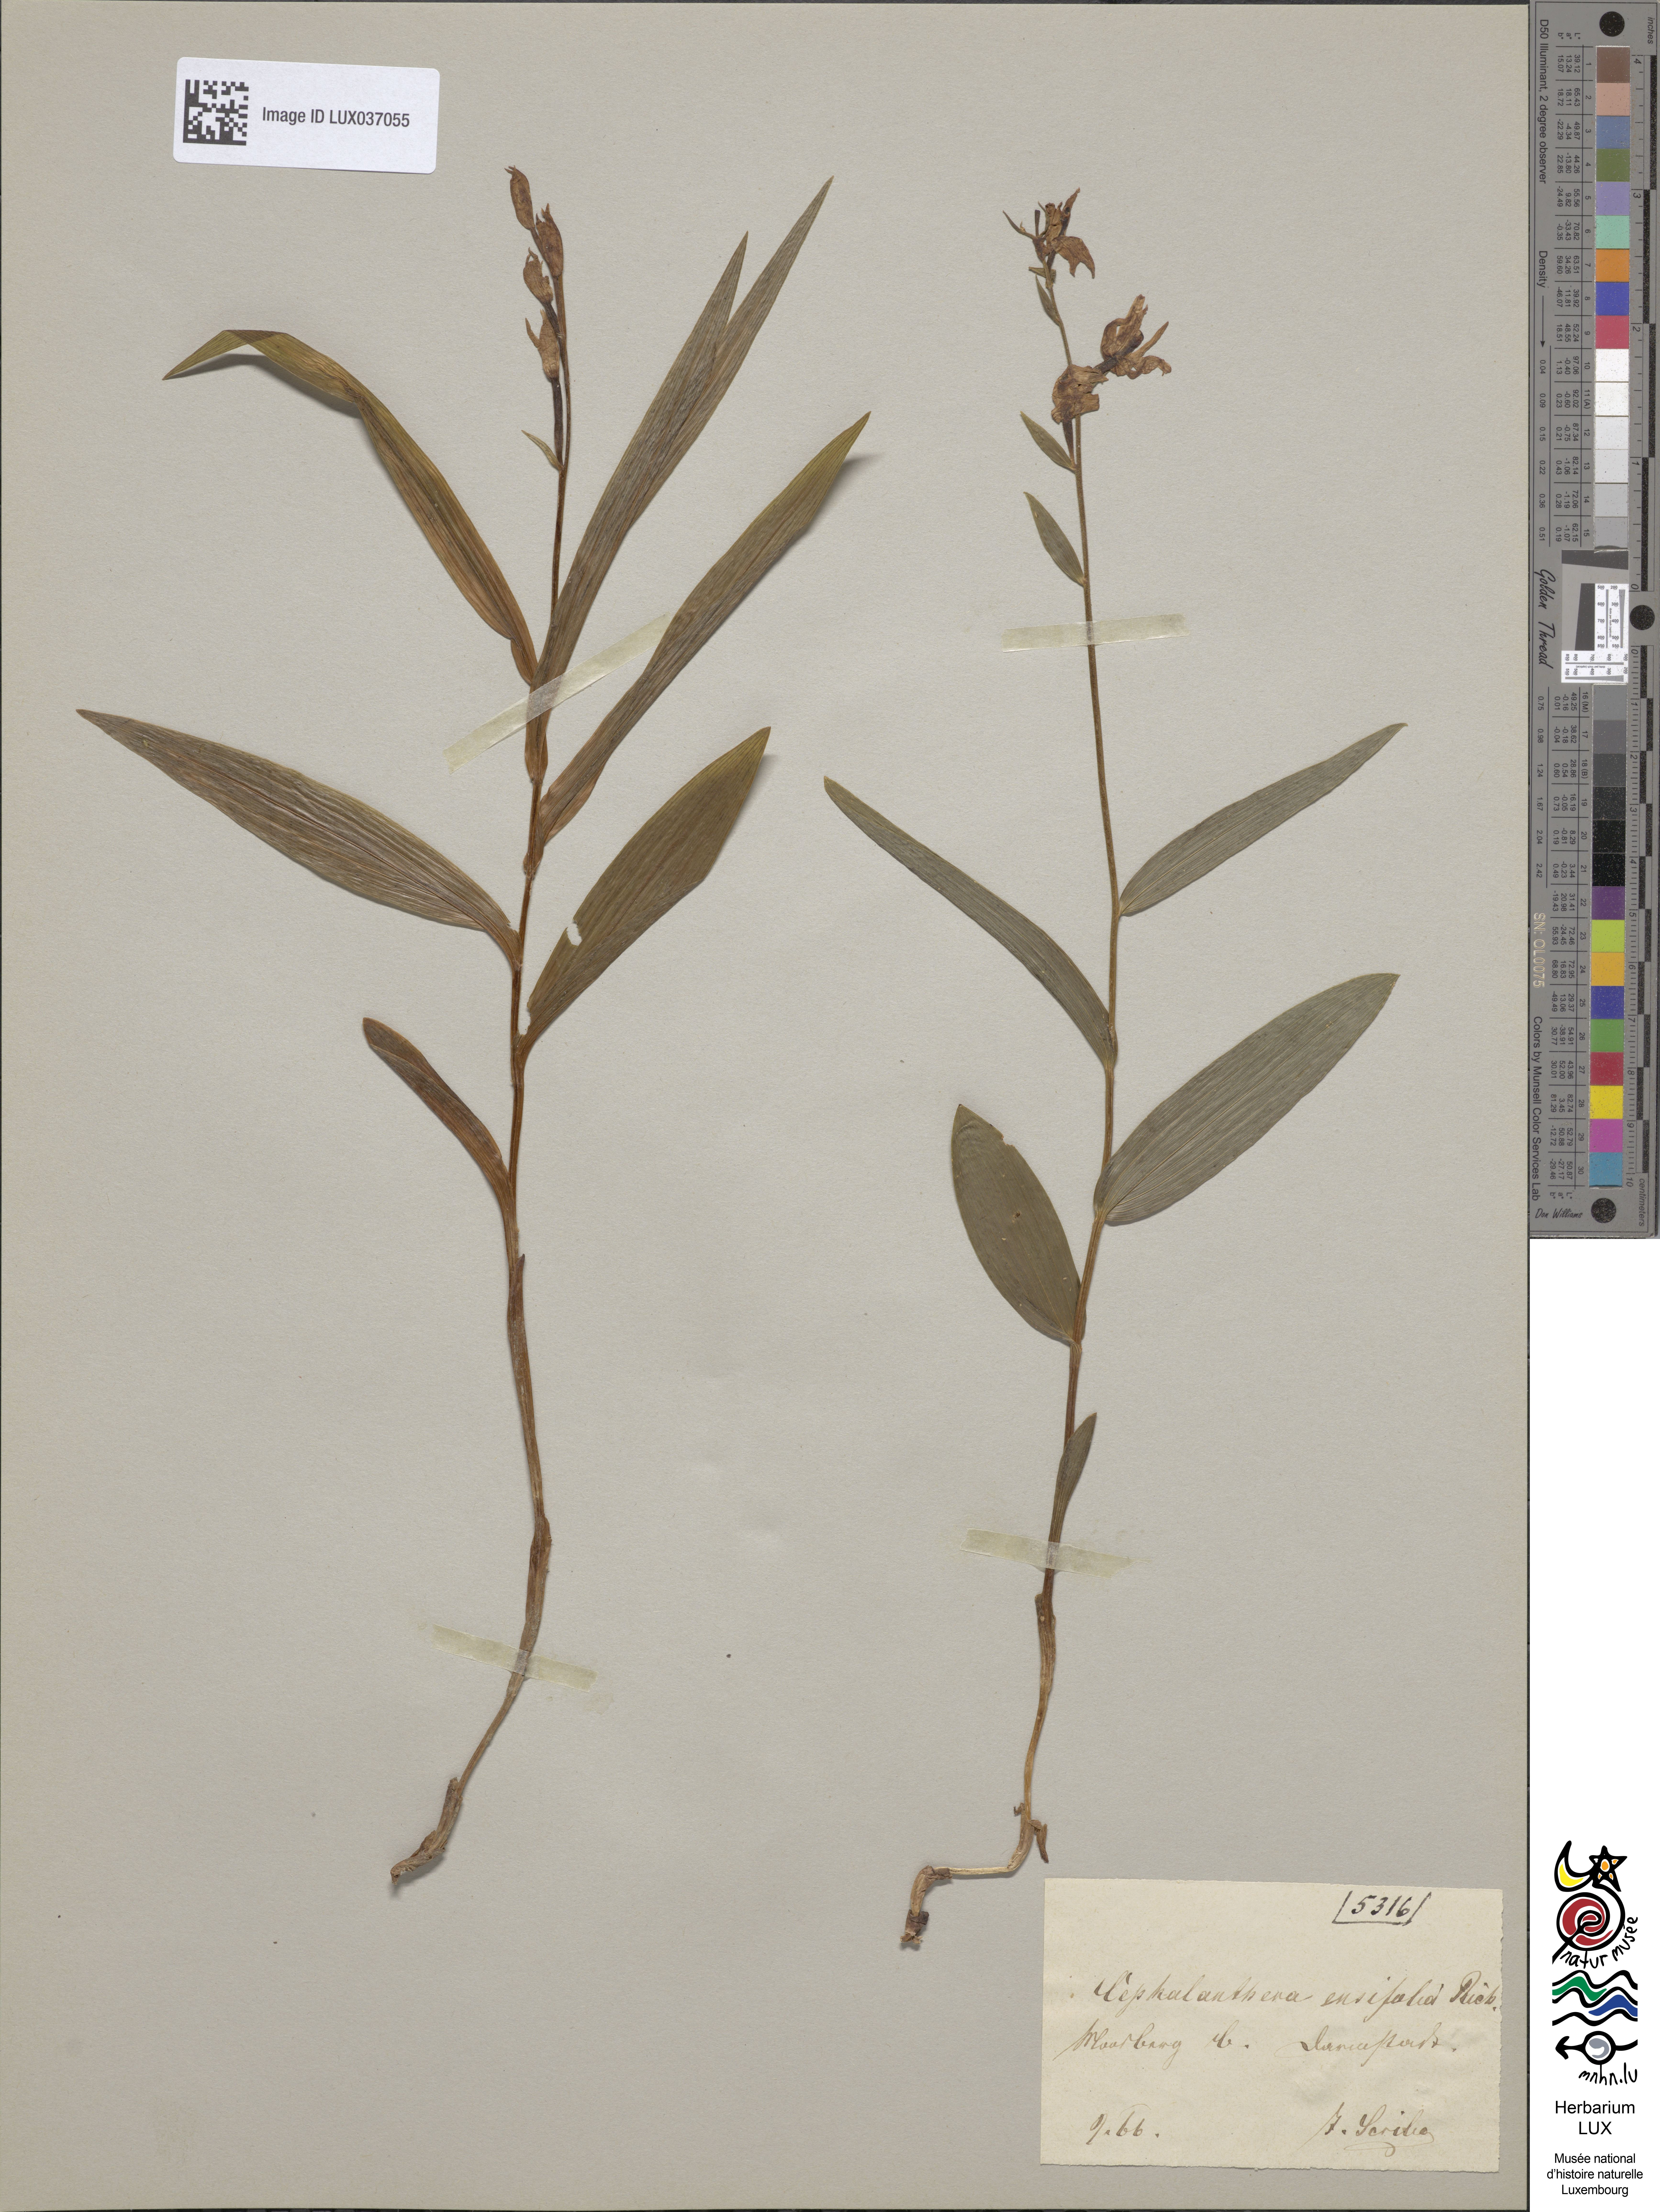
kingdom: Plantae
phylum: Tracheophyta
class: Liliopsida
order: Asparagales
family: Orchidaceae
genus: Cephalanthera
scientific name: Cephalanthera longifolia
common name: Narrow-leaved helleborine
